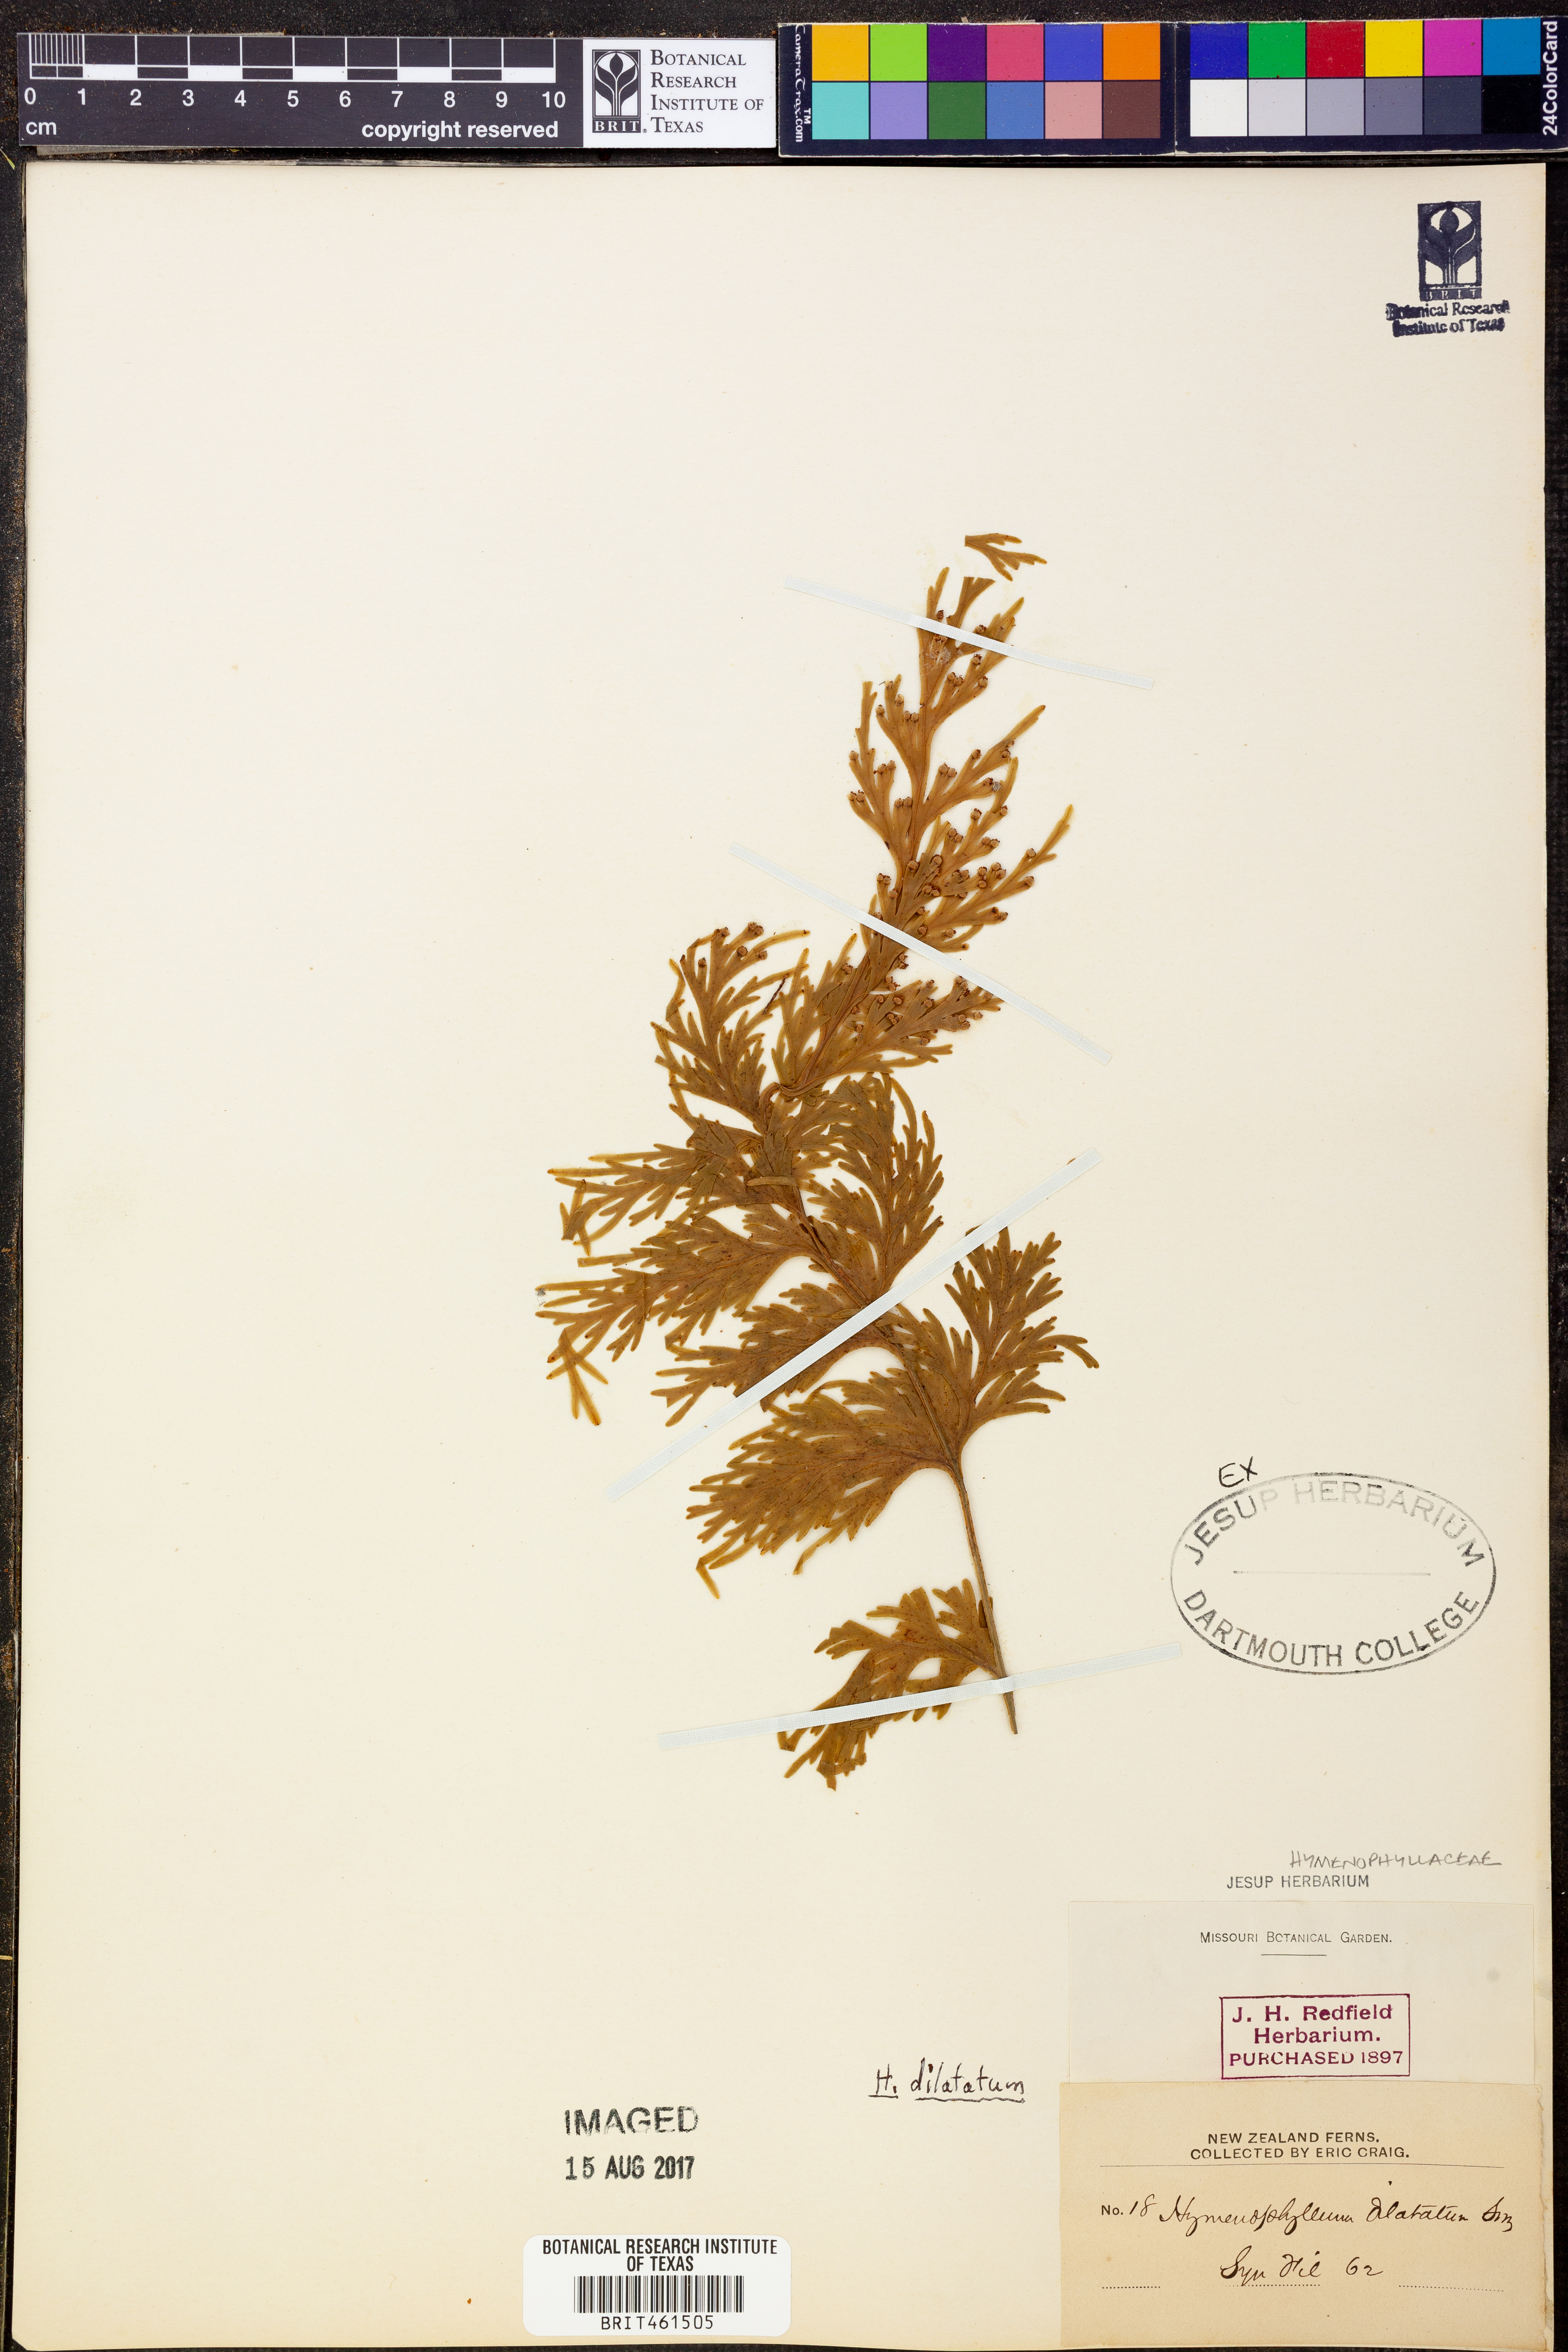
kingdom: Plantae
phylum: Tracheophyta
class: Polypodiopsida
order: Hymenophyllales
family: Hymenophyllaceae
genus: Hymenophyllum
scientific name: Hymenophyllum dilatatum
